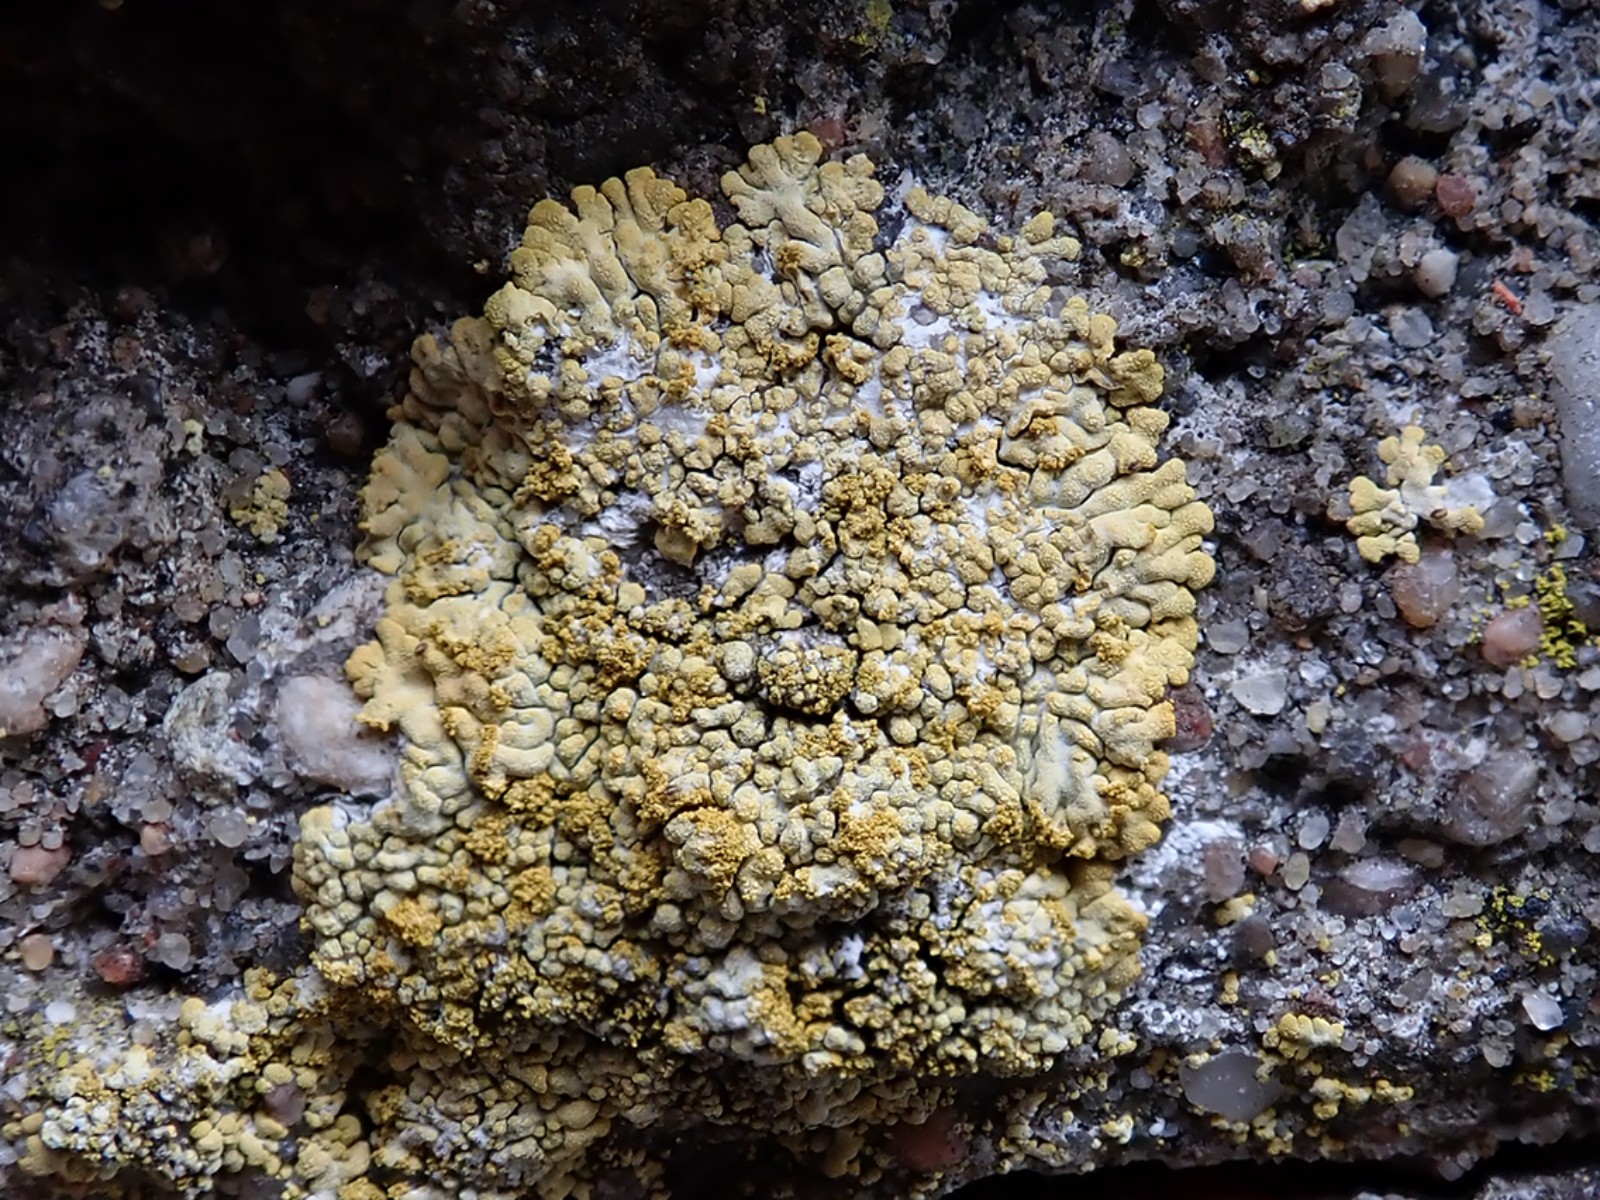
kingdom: Fungi
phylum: Ascomycota
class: Lecanoromycetes
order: Teloschistales
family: Teloschistaceae
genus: Calogaya
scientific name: Calogaya decipiens
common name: knudret orangelav
